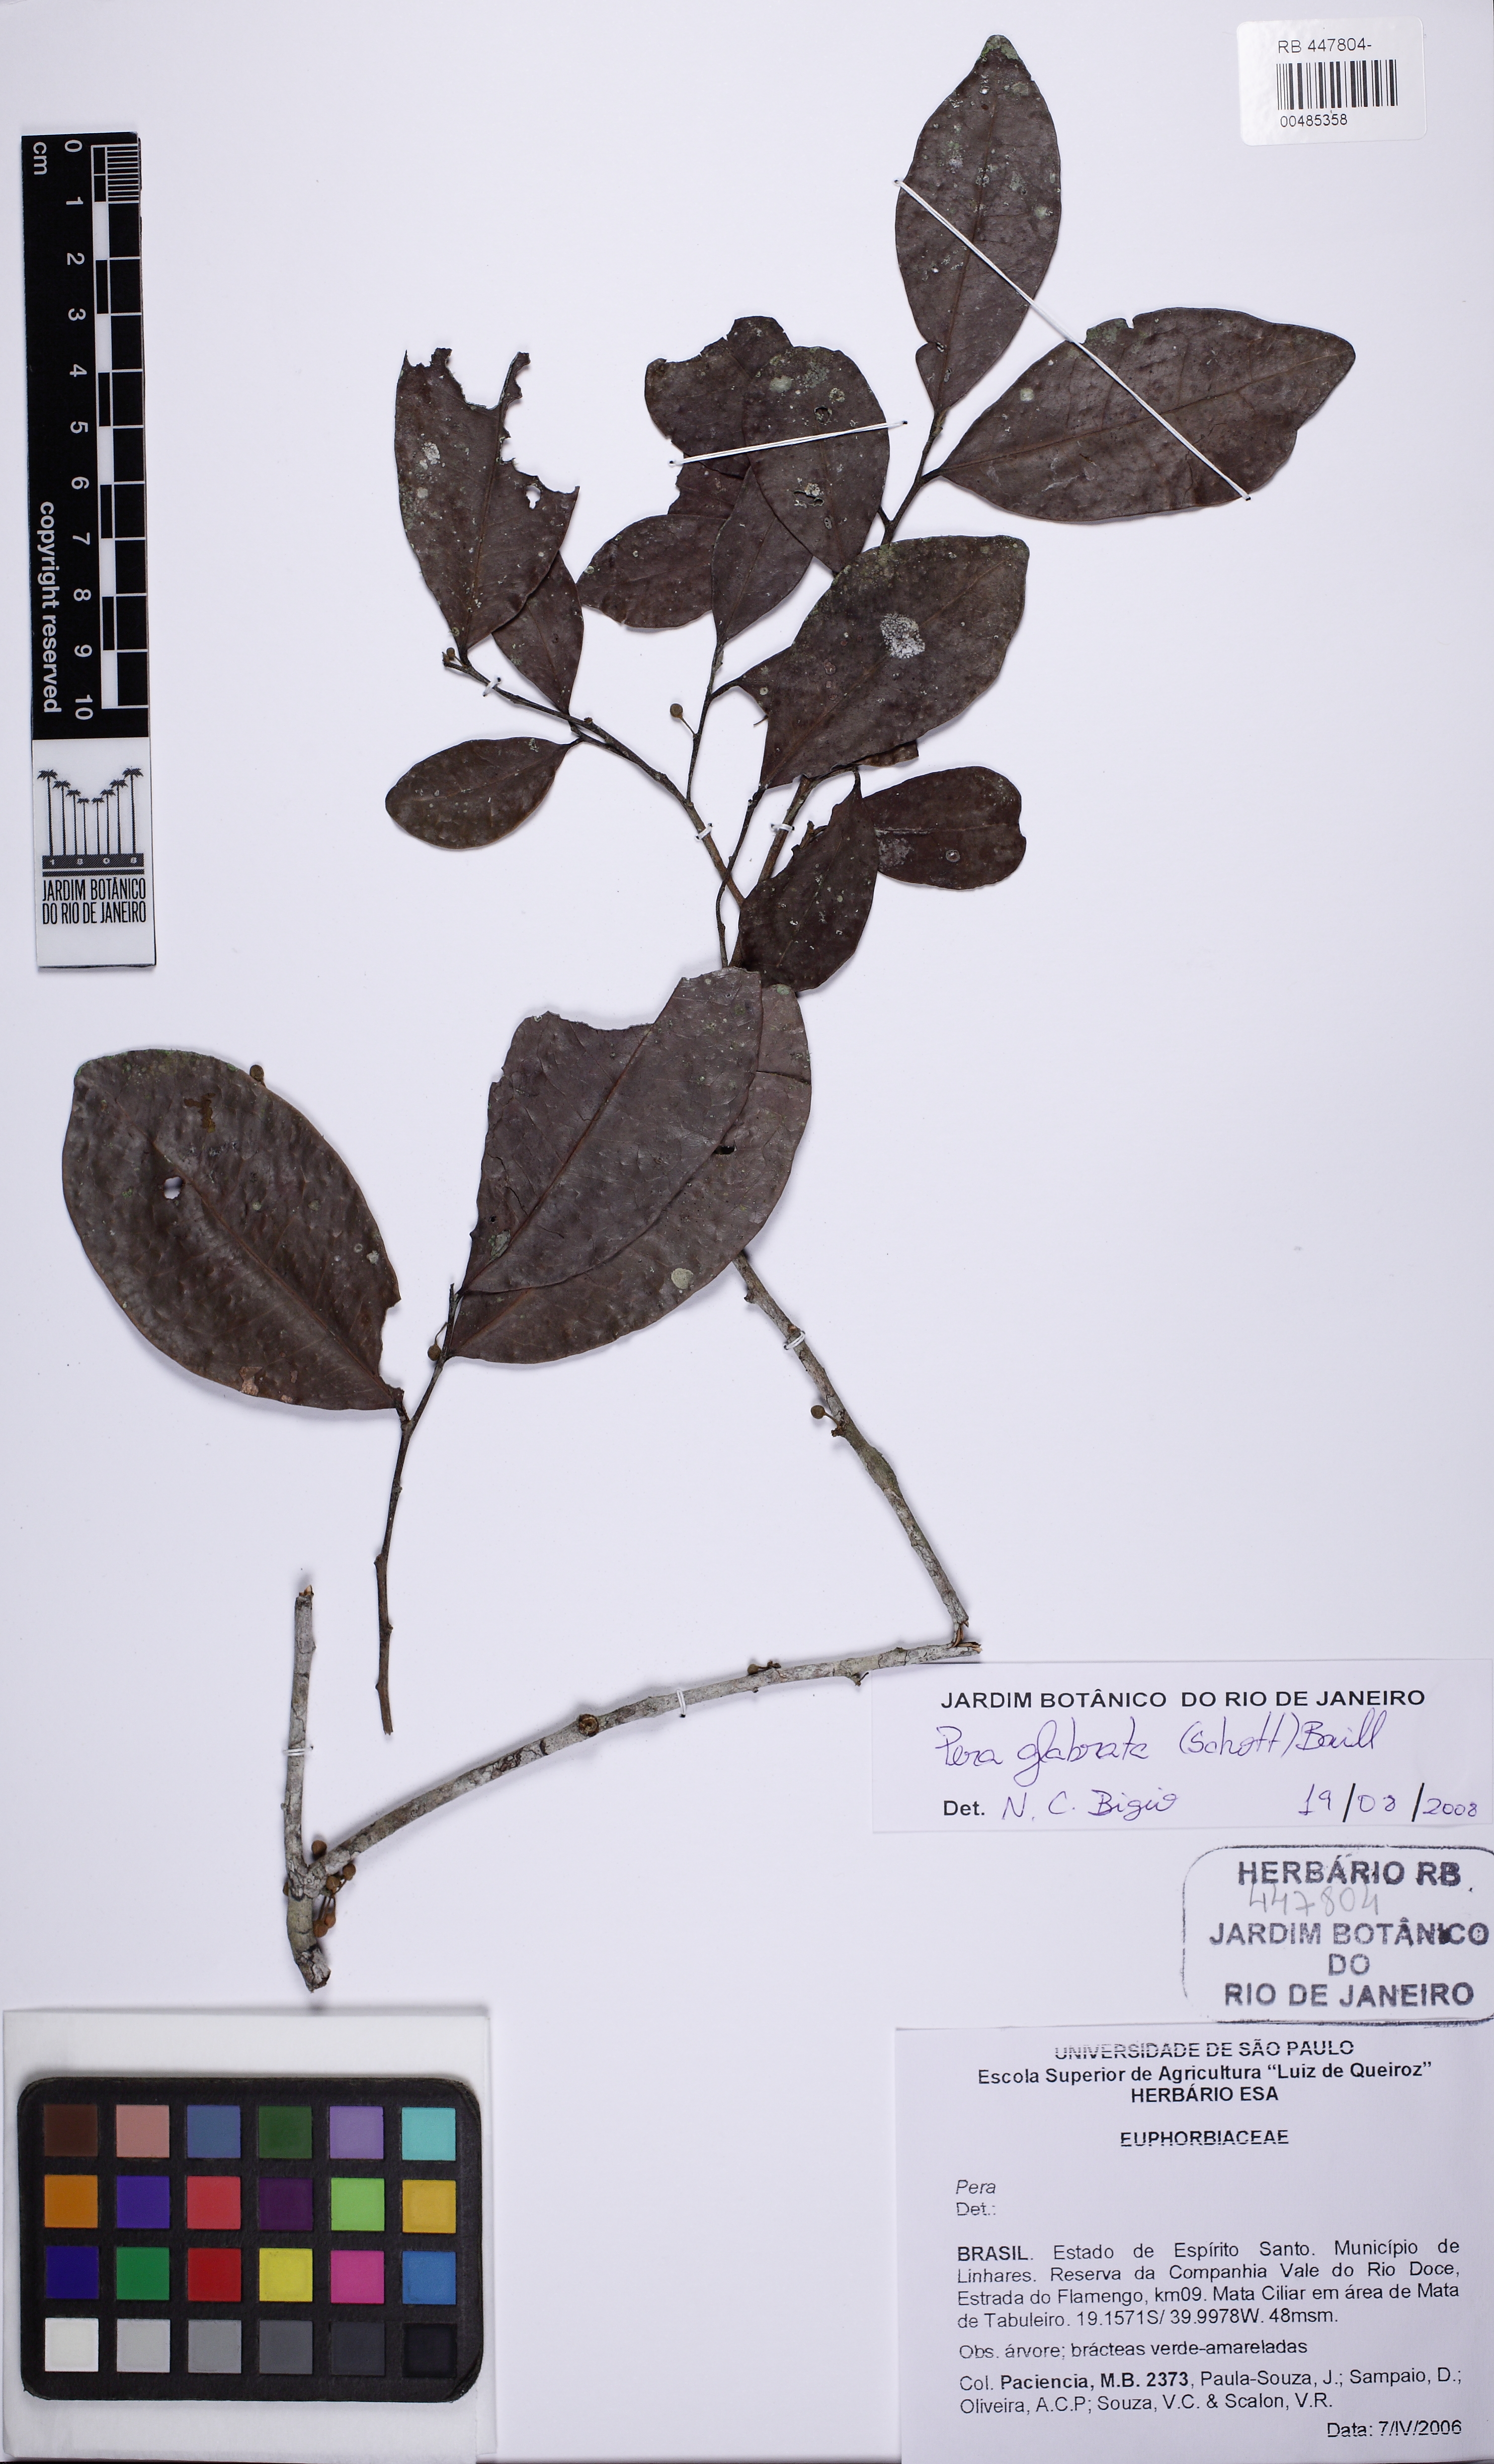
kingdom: Plantae
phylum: Tracheophyta
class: Magnoliopsida
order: Malpighiales
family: Peraceae
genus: Pera
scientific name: Pera glabrata
